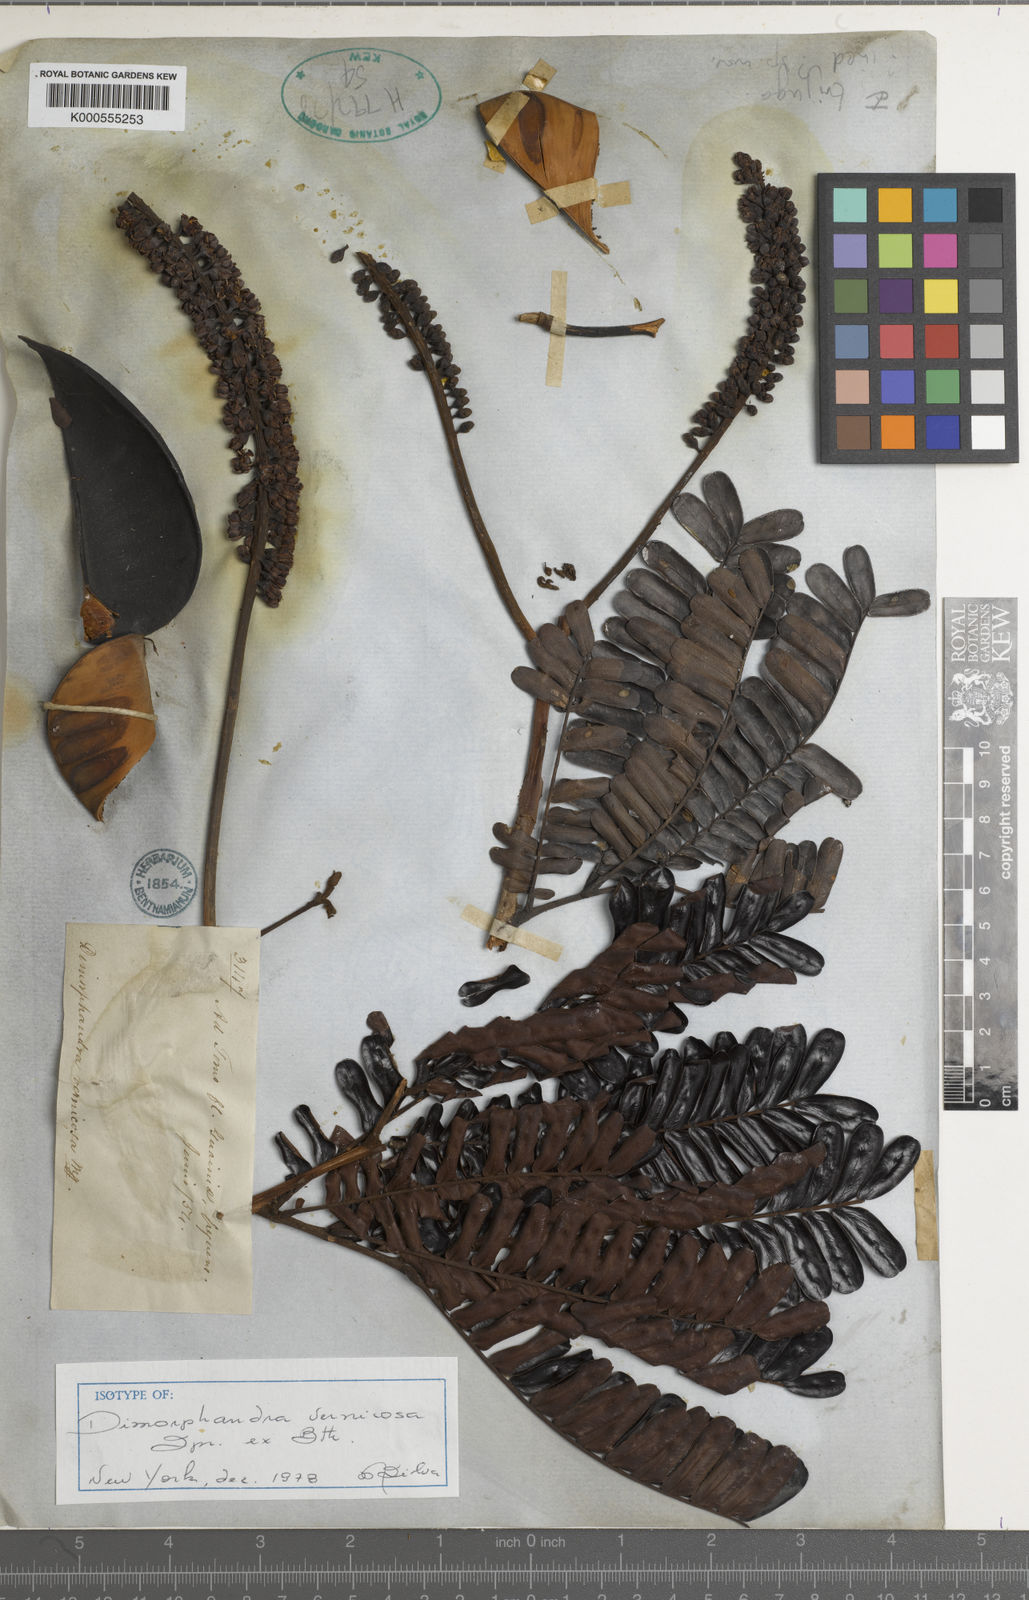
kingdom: Plantae
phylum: Tracheophyta
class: Magnoliopsida
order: Fabales
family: Fabaceae
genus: Dimorphandra
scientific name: Dimorphandra
